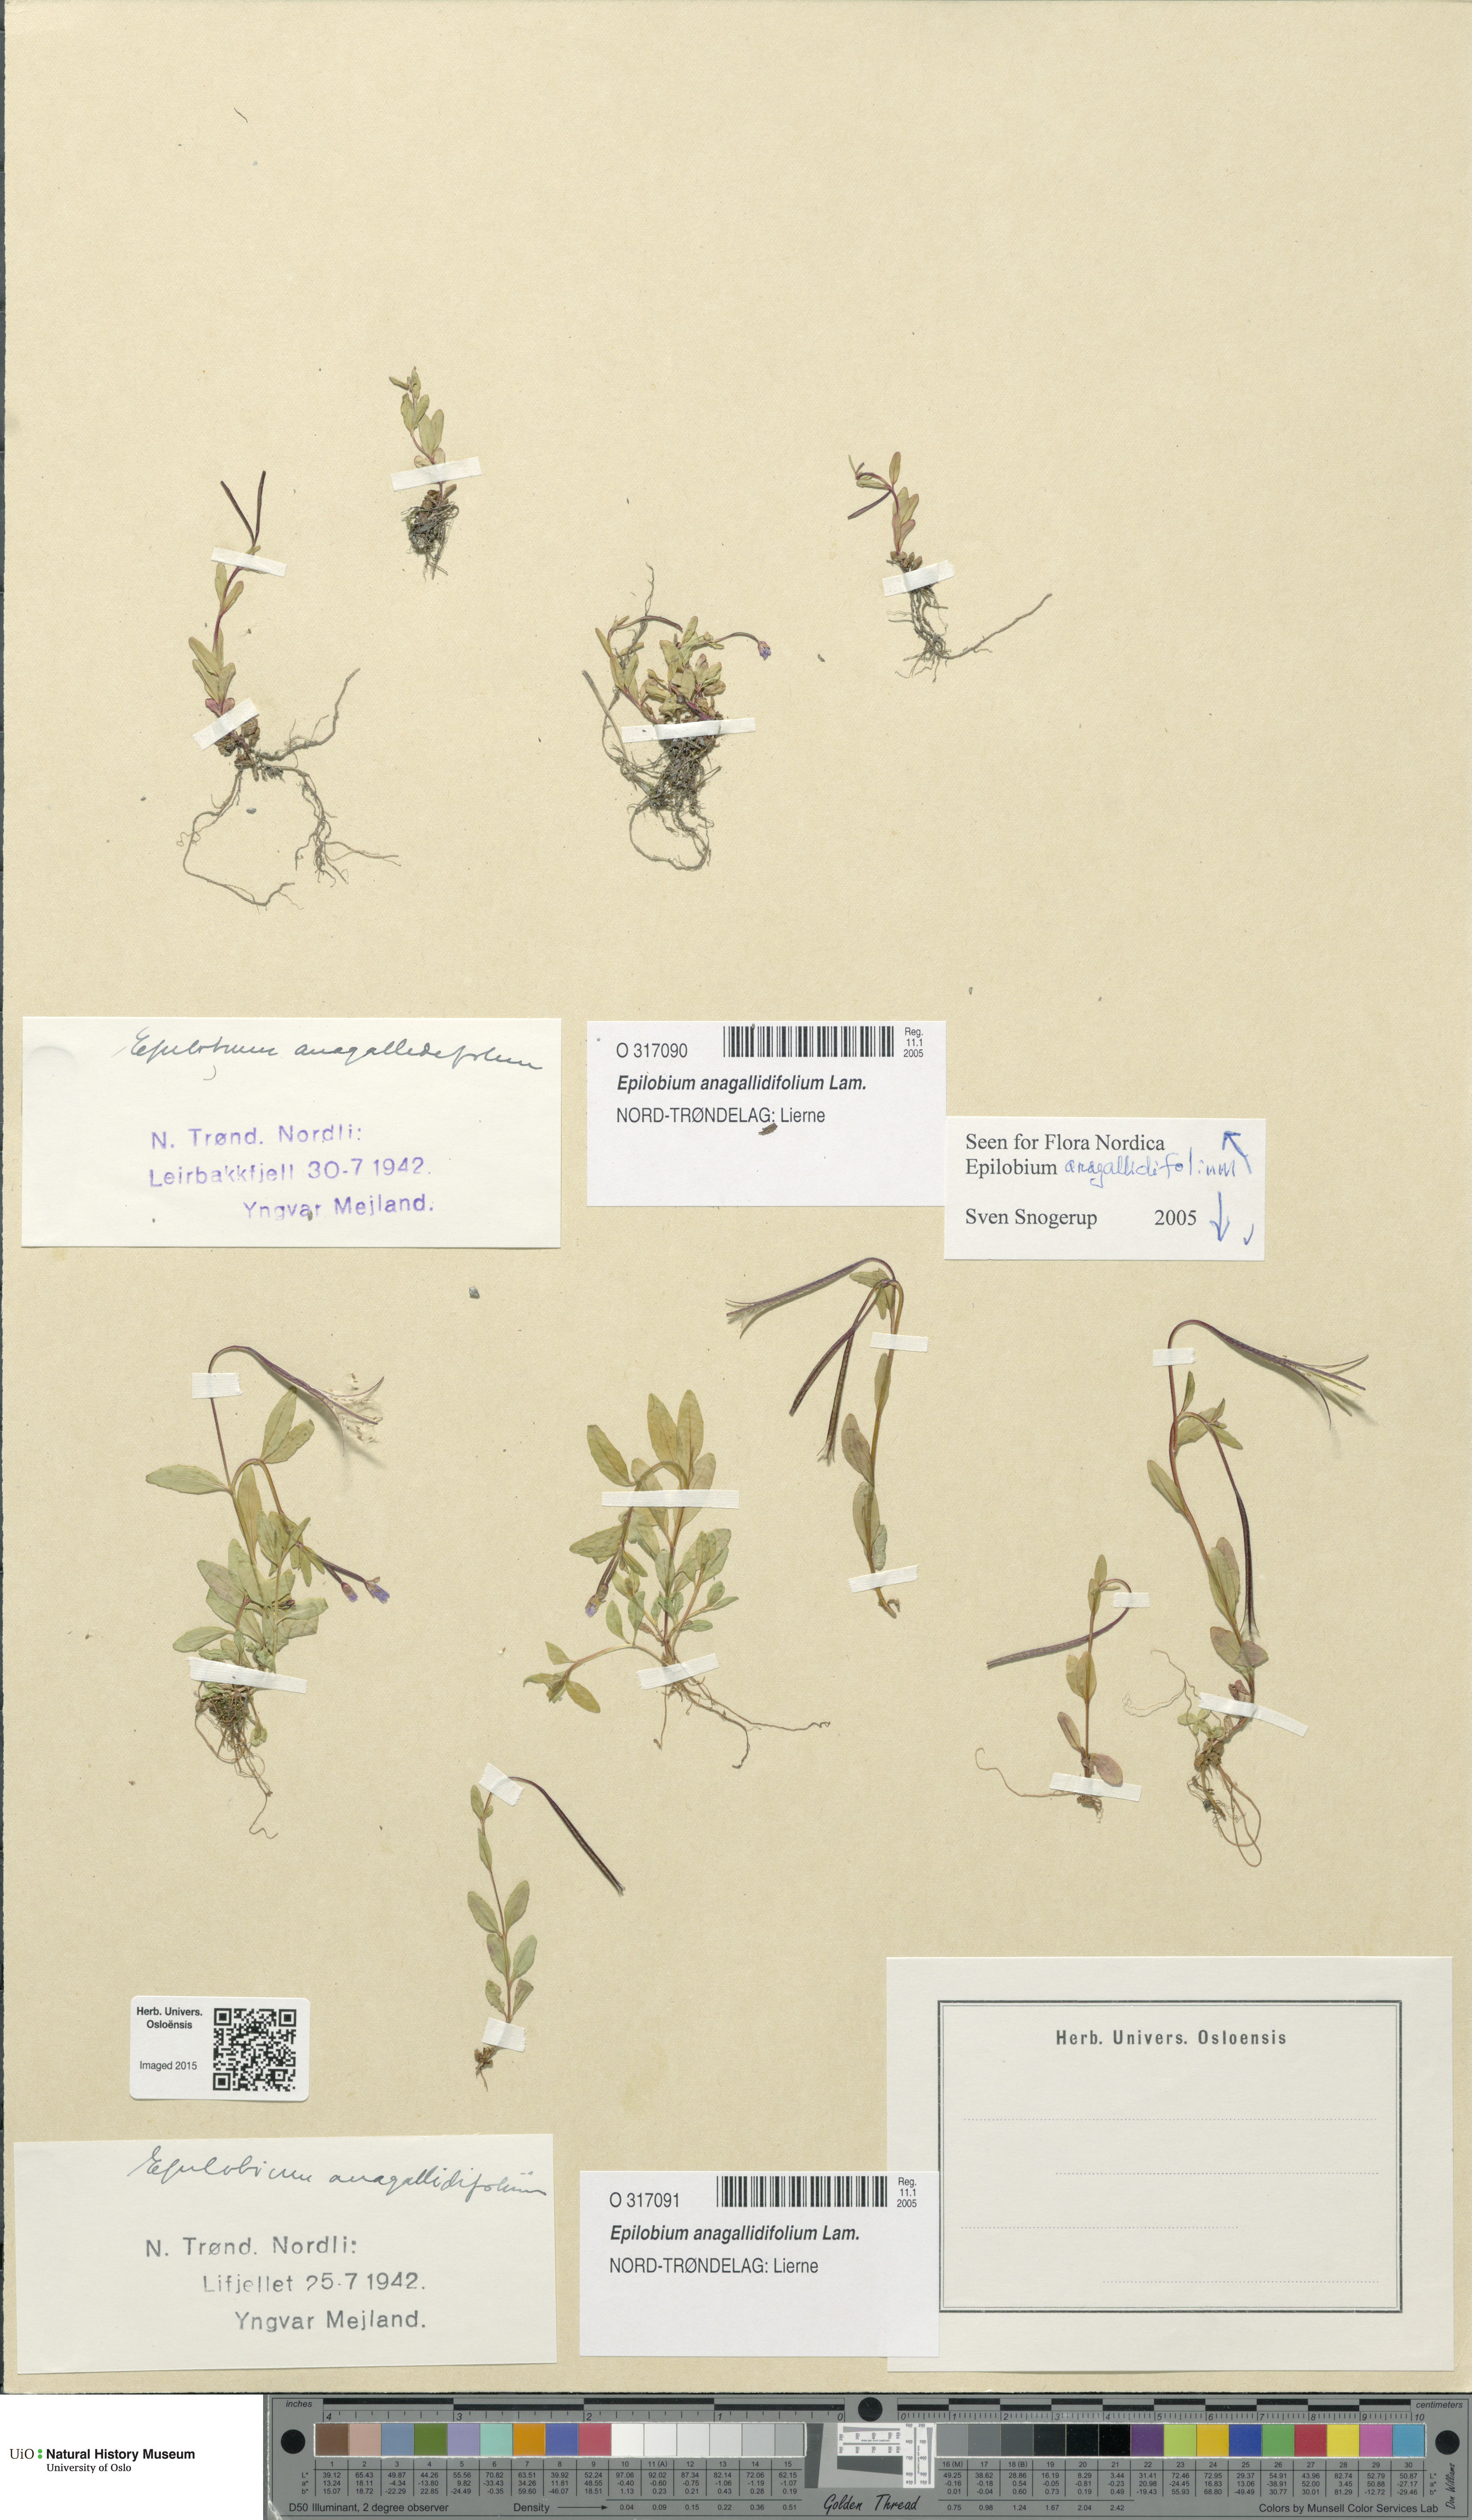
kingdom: Plantae
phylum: Tracheophyta
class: Magnoliopsida
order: Myrtales
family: Onagraceae
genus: Epilobium
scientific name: Epilobium anagallidifolium
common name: Alpine willowherb
